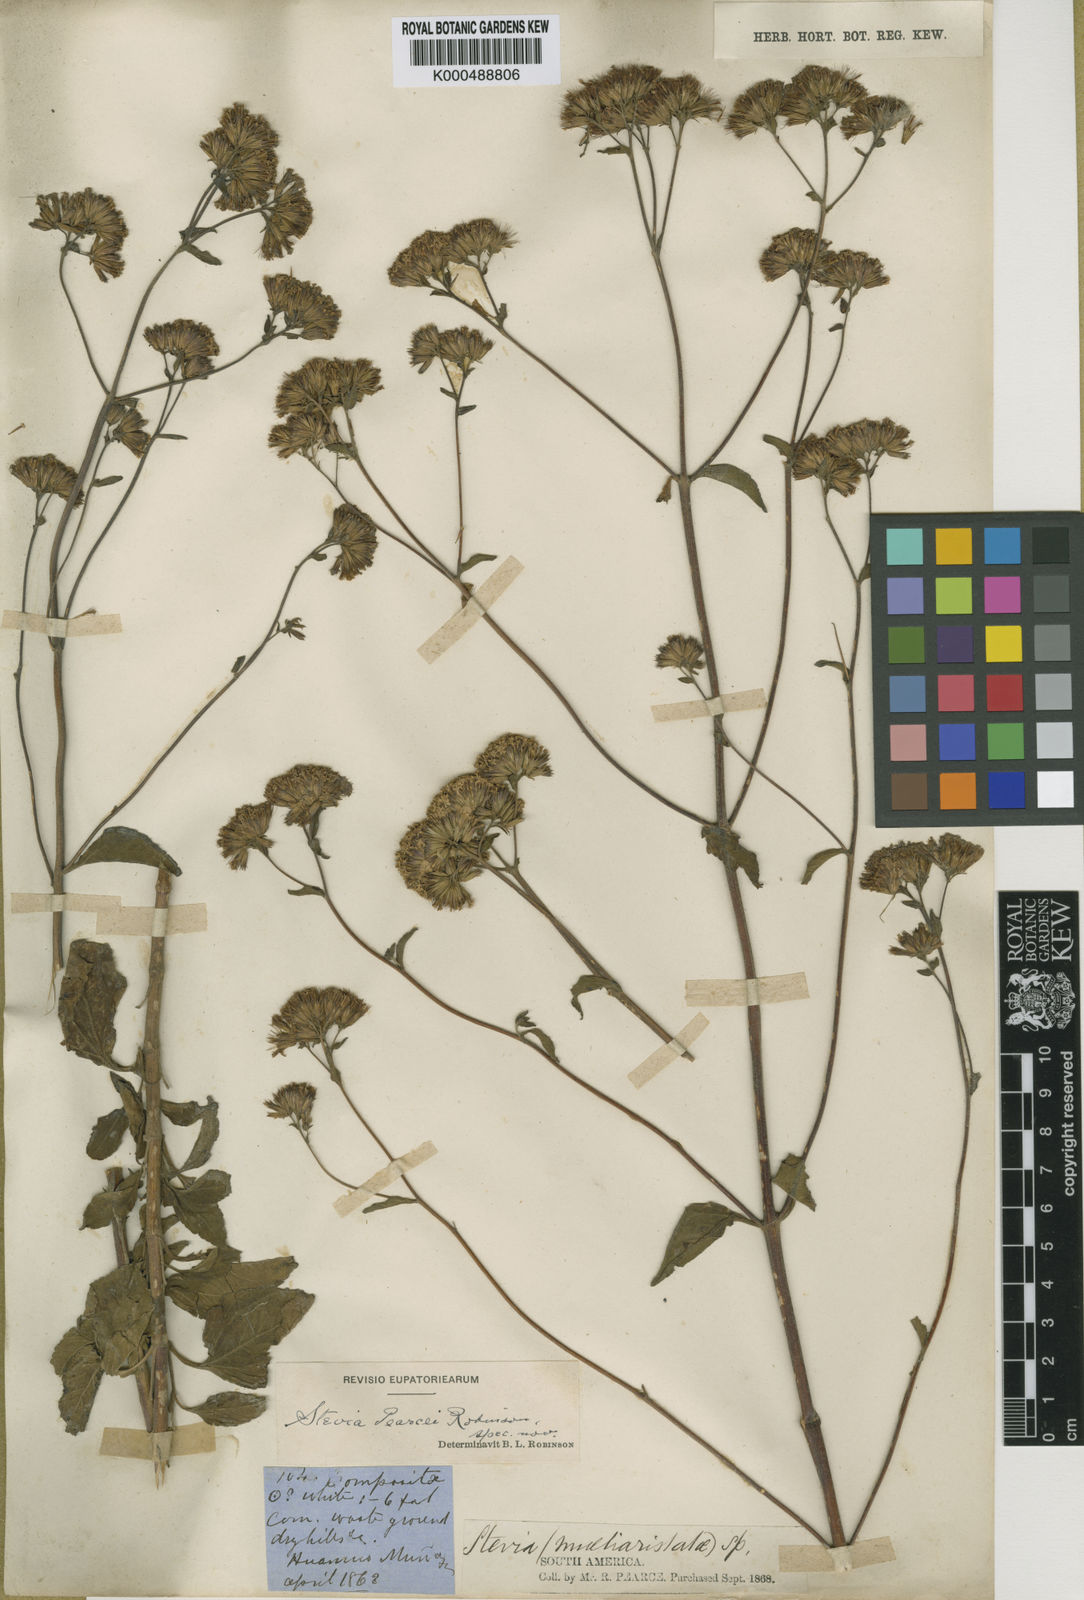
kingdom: Plantae
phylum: Tracheophyta
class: Magnoliopsida
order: Asterales
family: Asteraceae
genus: Stevia
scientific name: Stevia pearcei
